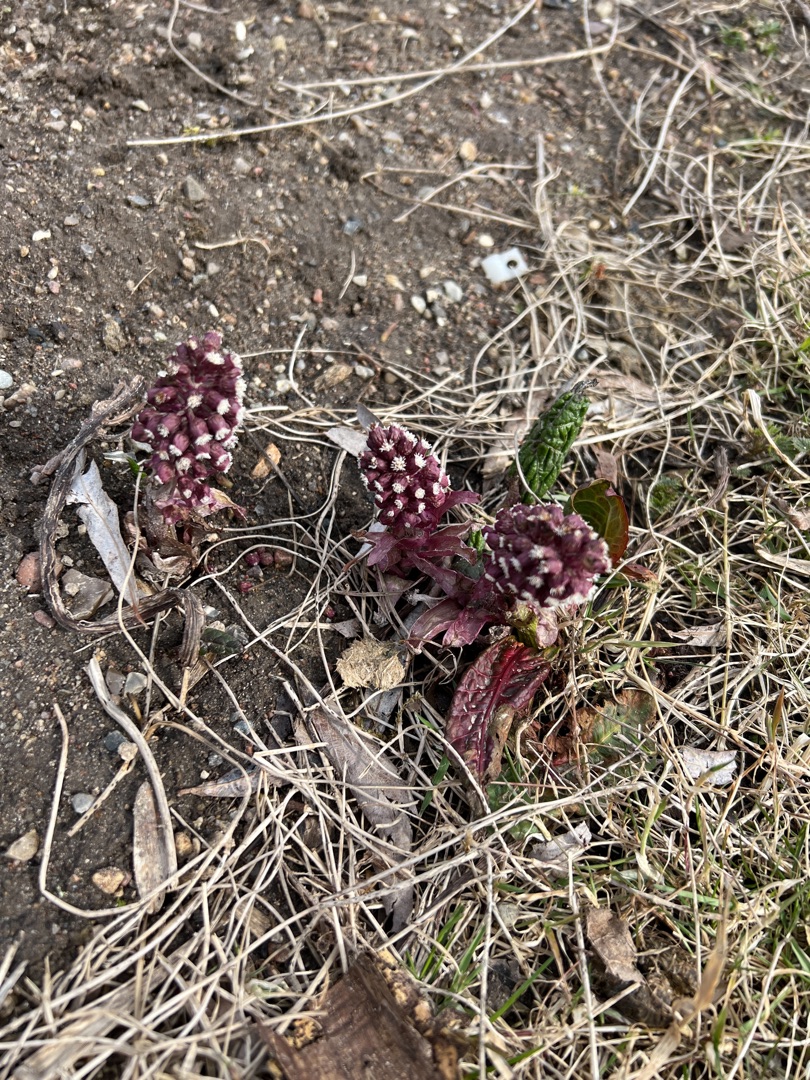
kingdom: Plantae
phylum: Tracheophyta
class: Magnoliopsida
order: Asterales
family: Asteraceae
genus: Petasites
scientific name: Petasites hybridus
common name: Rød hestehov
